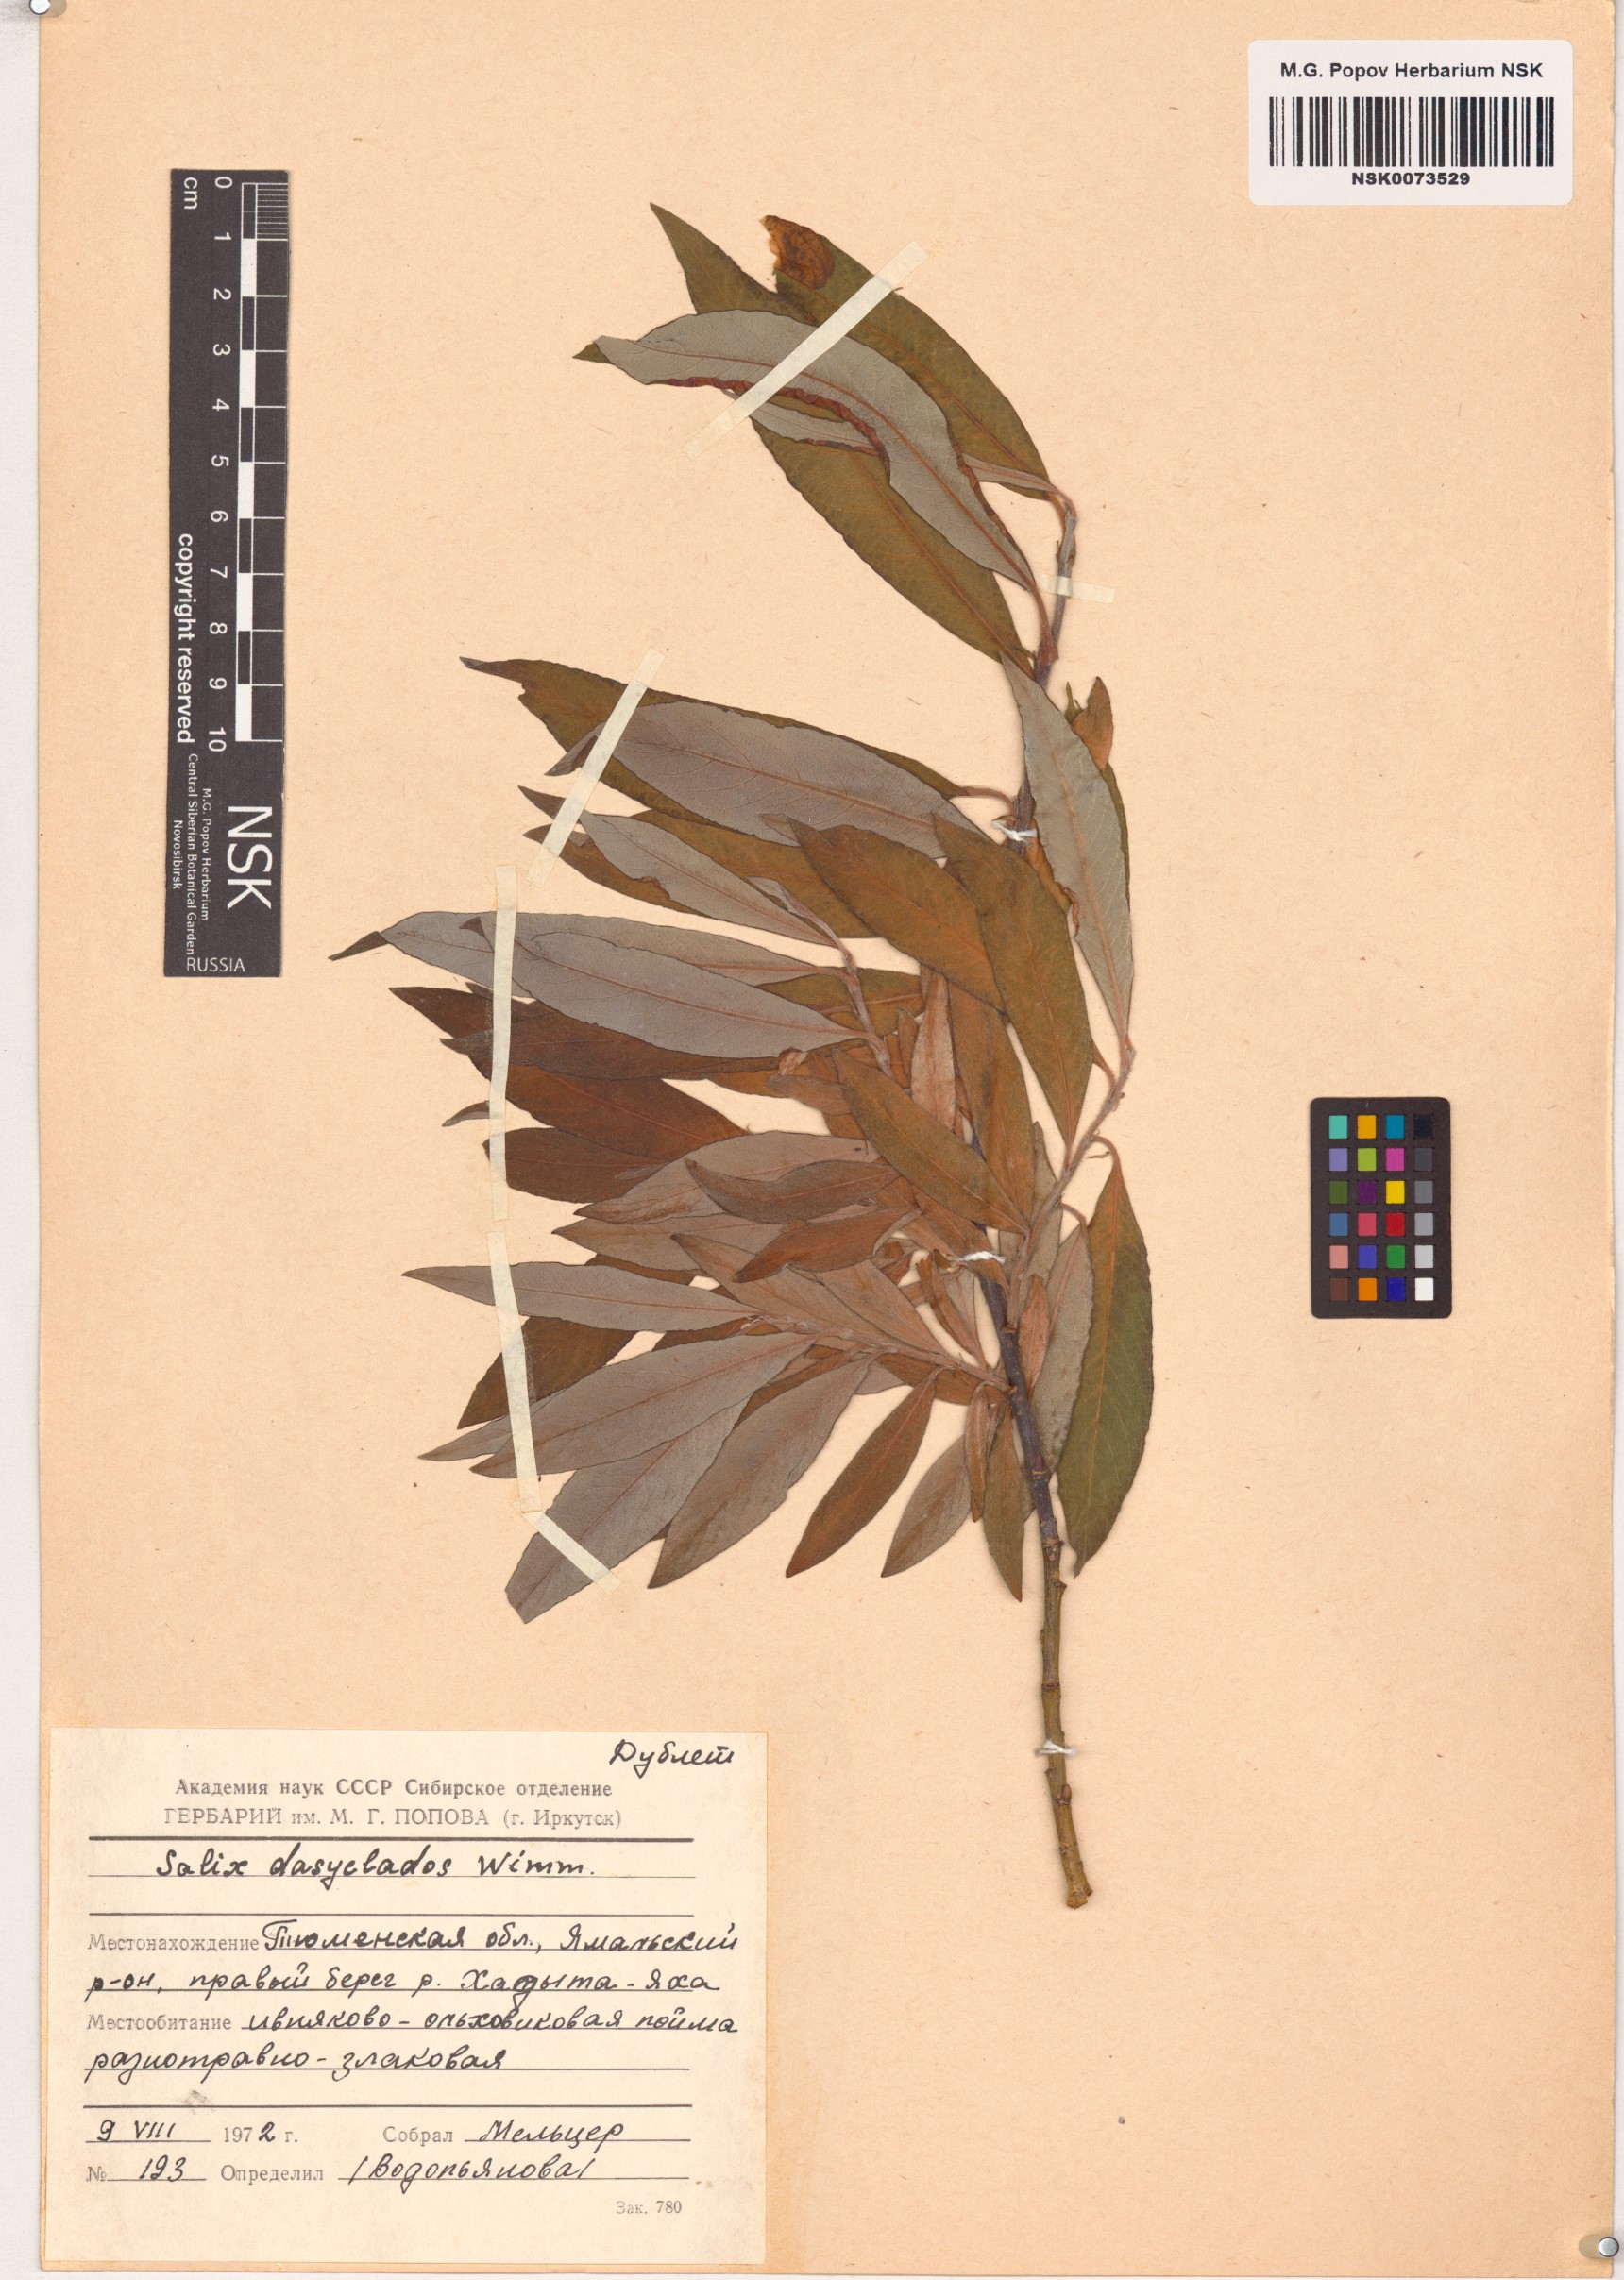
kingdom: Plantae
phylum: Tracheophyta
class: Magnoliopsida
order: Malpighiales
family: Salicaceae
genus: Salix
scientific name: Salix gmelinii
